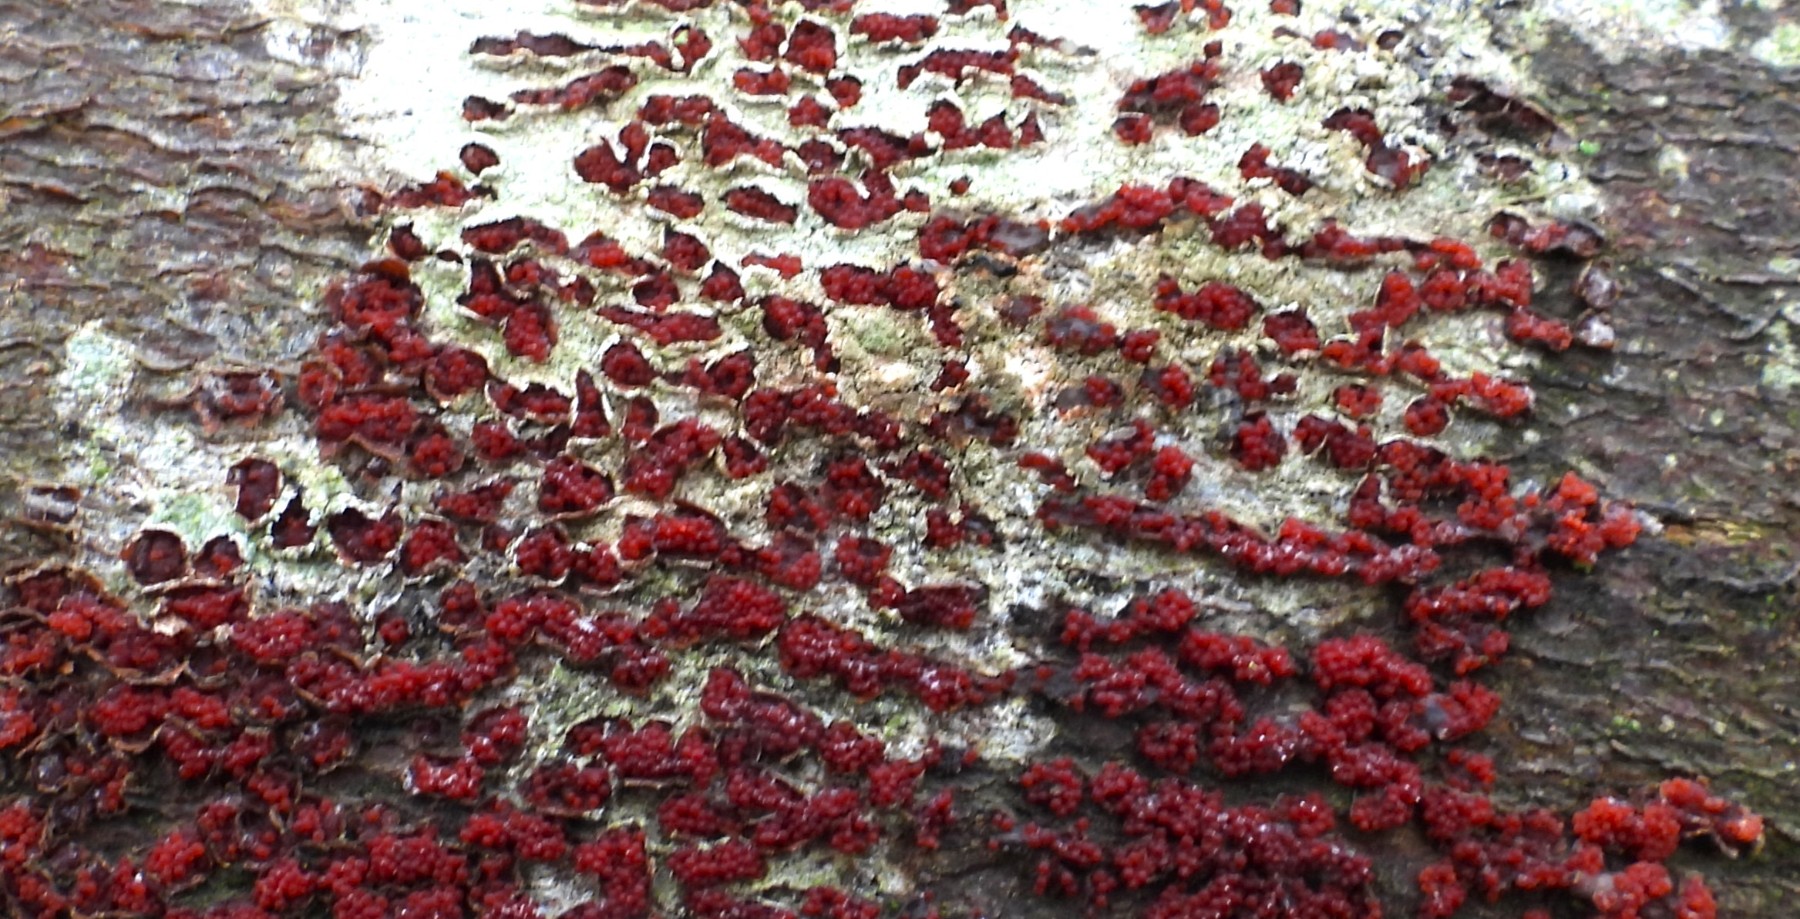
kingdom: Fungi
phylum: Ascomycota
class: Sordariomycetes
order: Hypocreales
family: Nectriaceae
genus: Neonectria
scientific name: Neonectria coccinea
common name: bøgebark-cinnobersvamp
